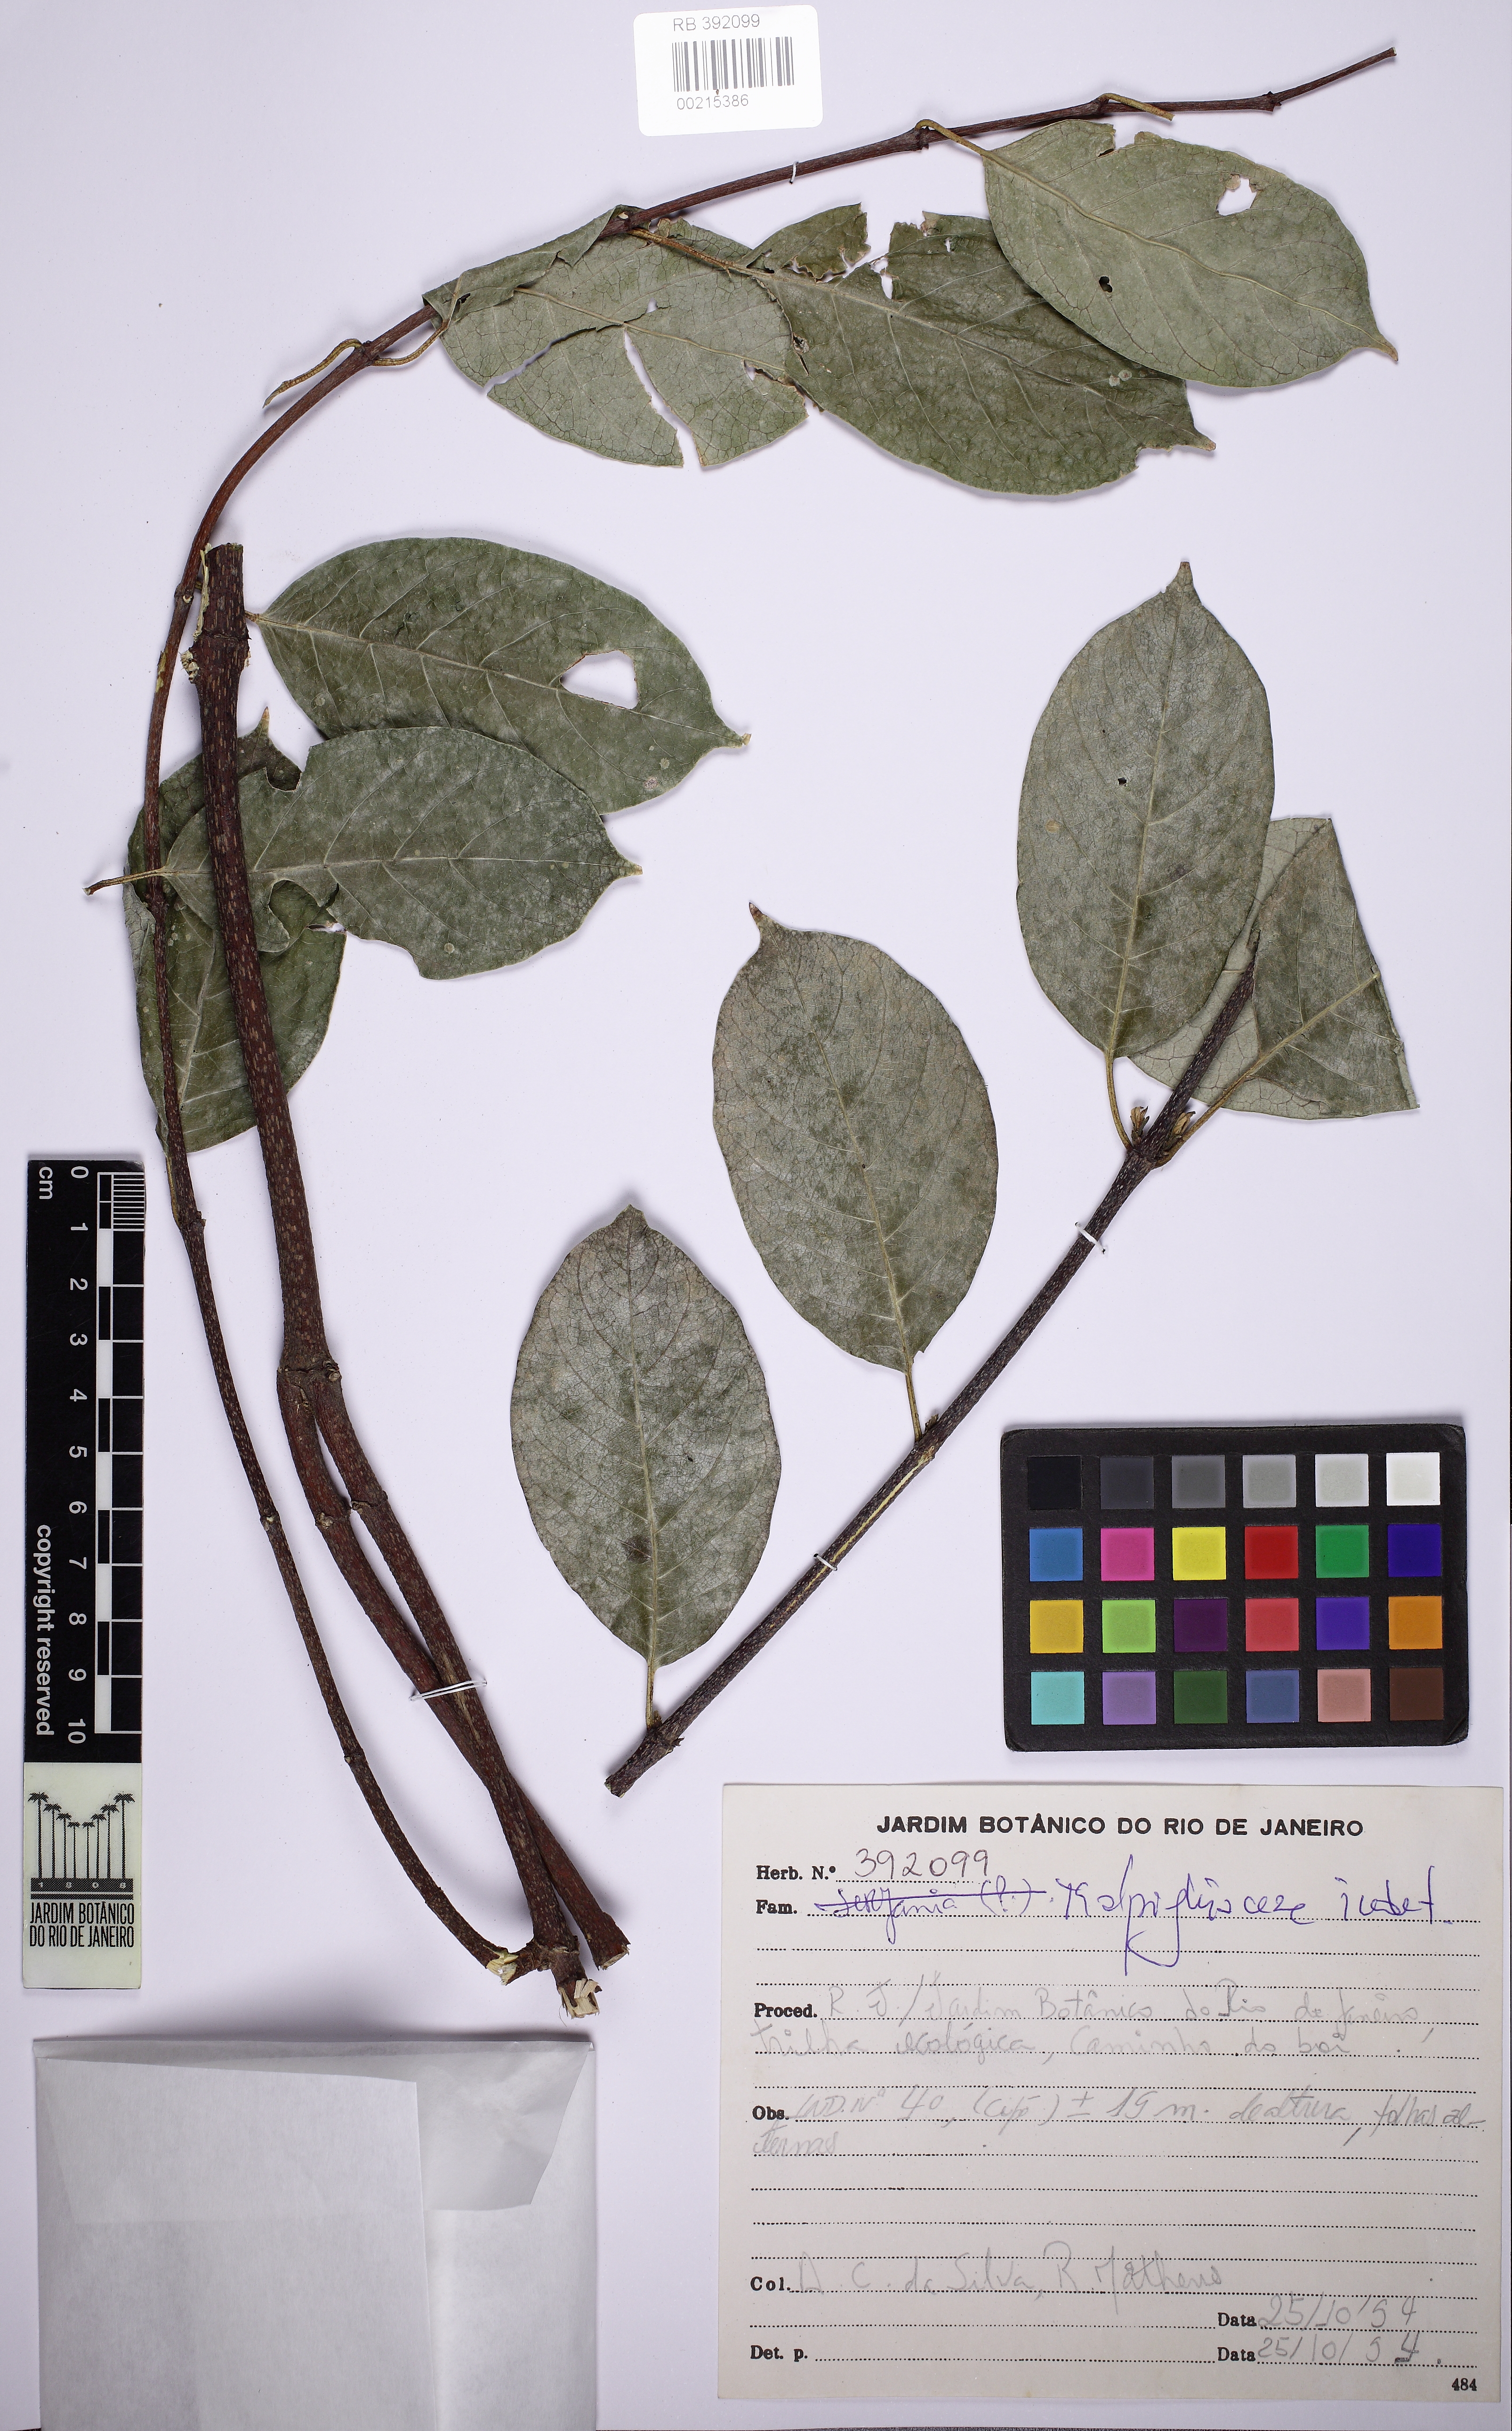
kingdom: Plantae
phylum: Tracheophyta
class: Magnoliopsida
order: Malpighiales
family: Malpighiaceae
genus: Banisteriopsis
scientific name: Banisteriopsis
